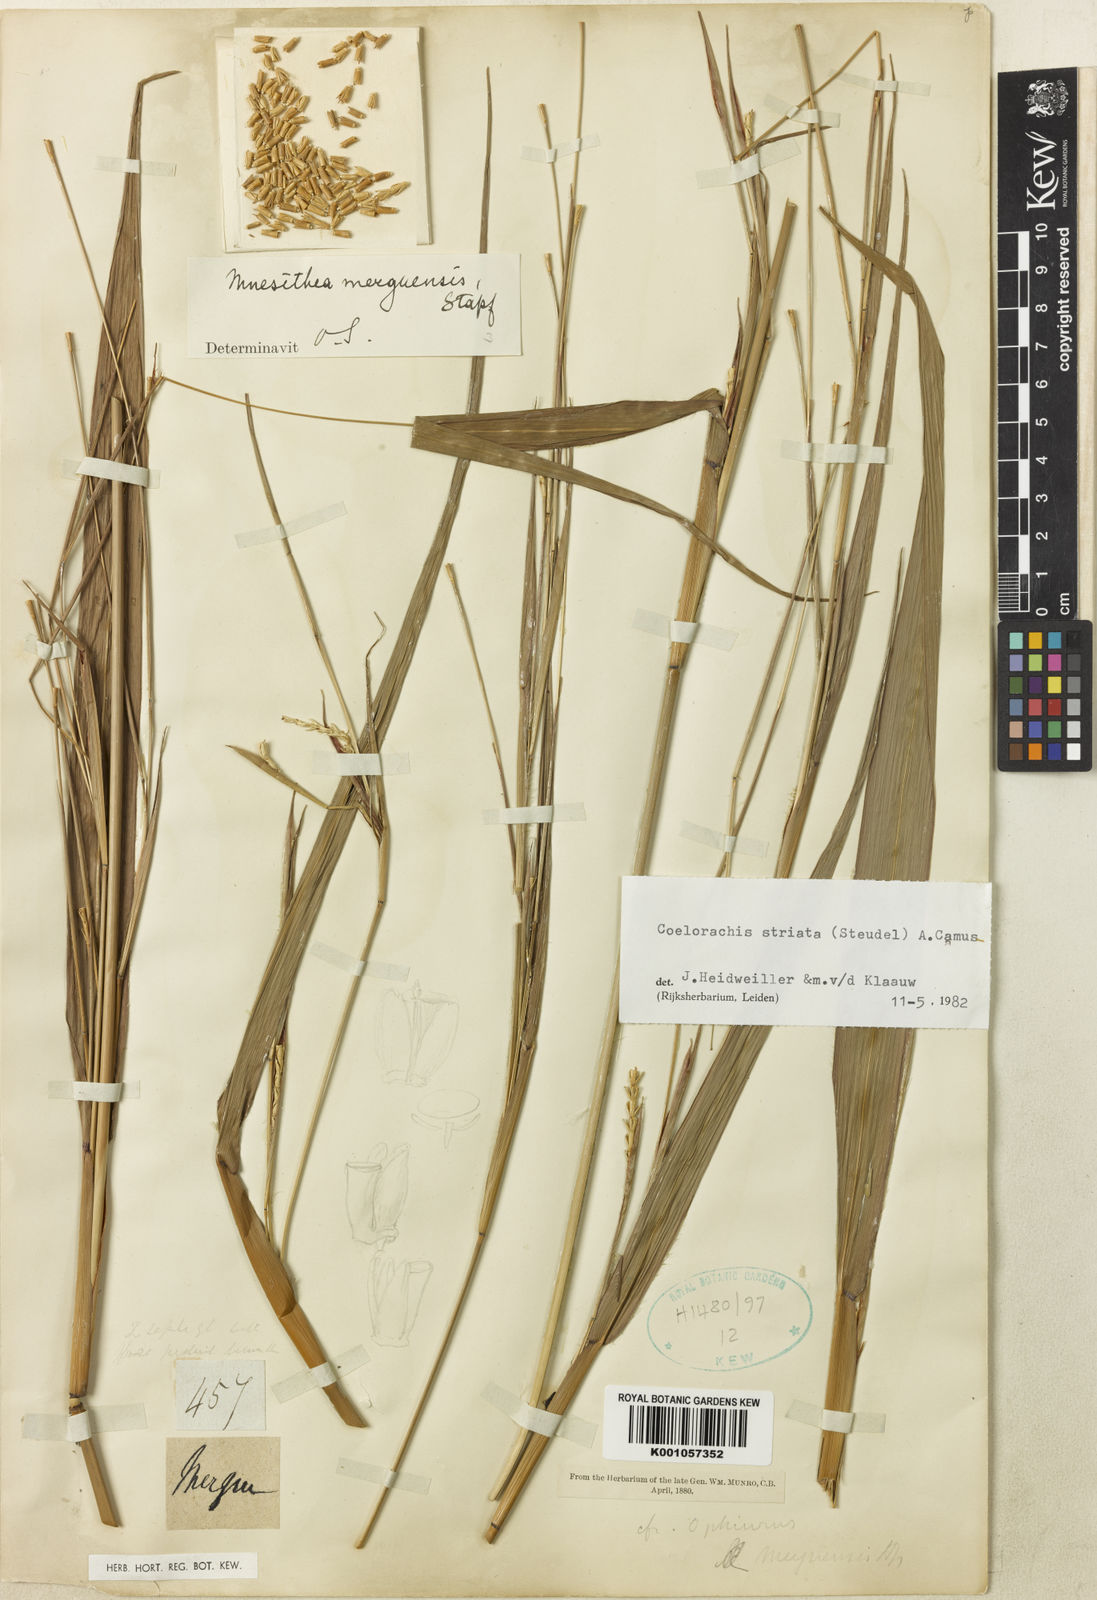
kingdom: Plantae
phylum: Tracheophyta
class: Liliopsida
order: Poales
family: Poaceae
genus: Rottboellia
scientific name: Rottboellia striata
